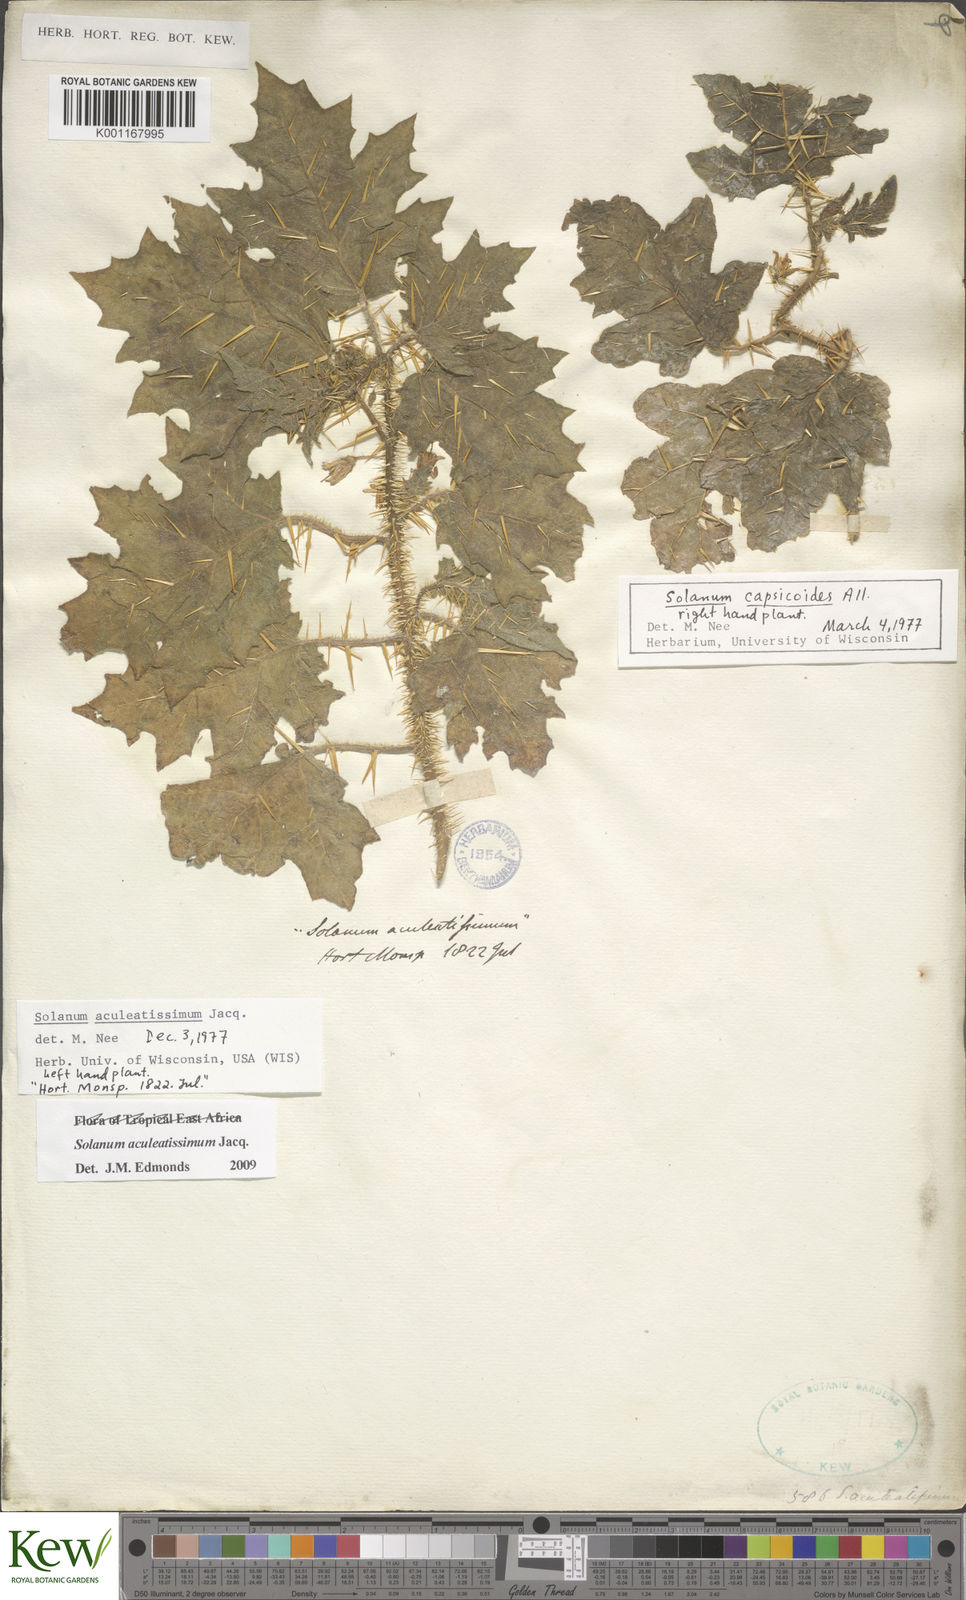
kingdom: Plantae
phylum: Tracheophyta
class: Magnoliopsida
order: Solanales
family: Solanaceae
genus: Solanum
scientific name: Solanum aculeatissimum
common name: Dutch eggplant
